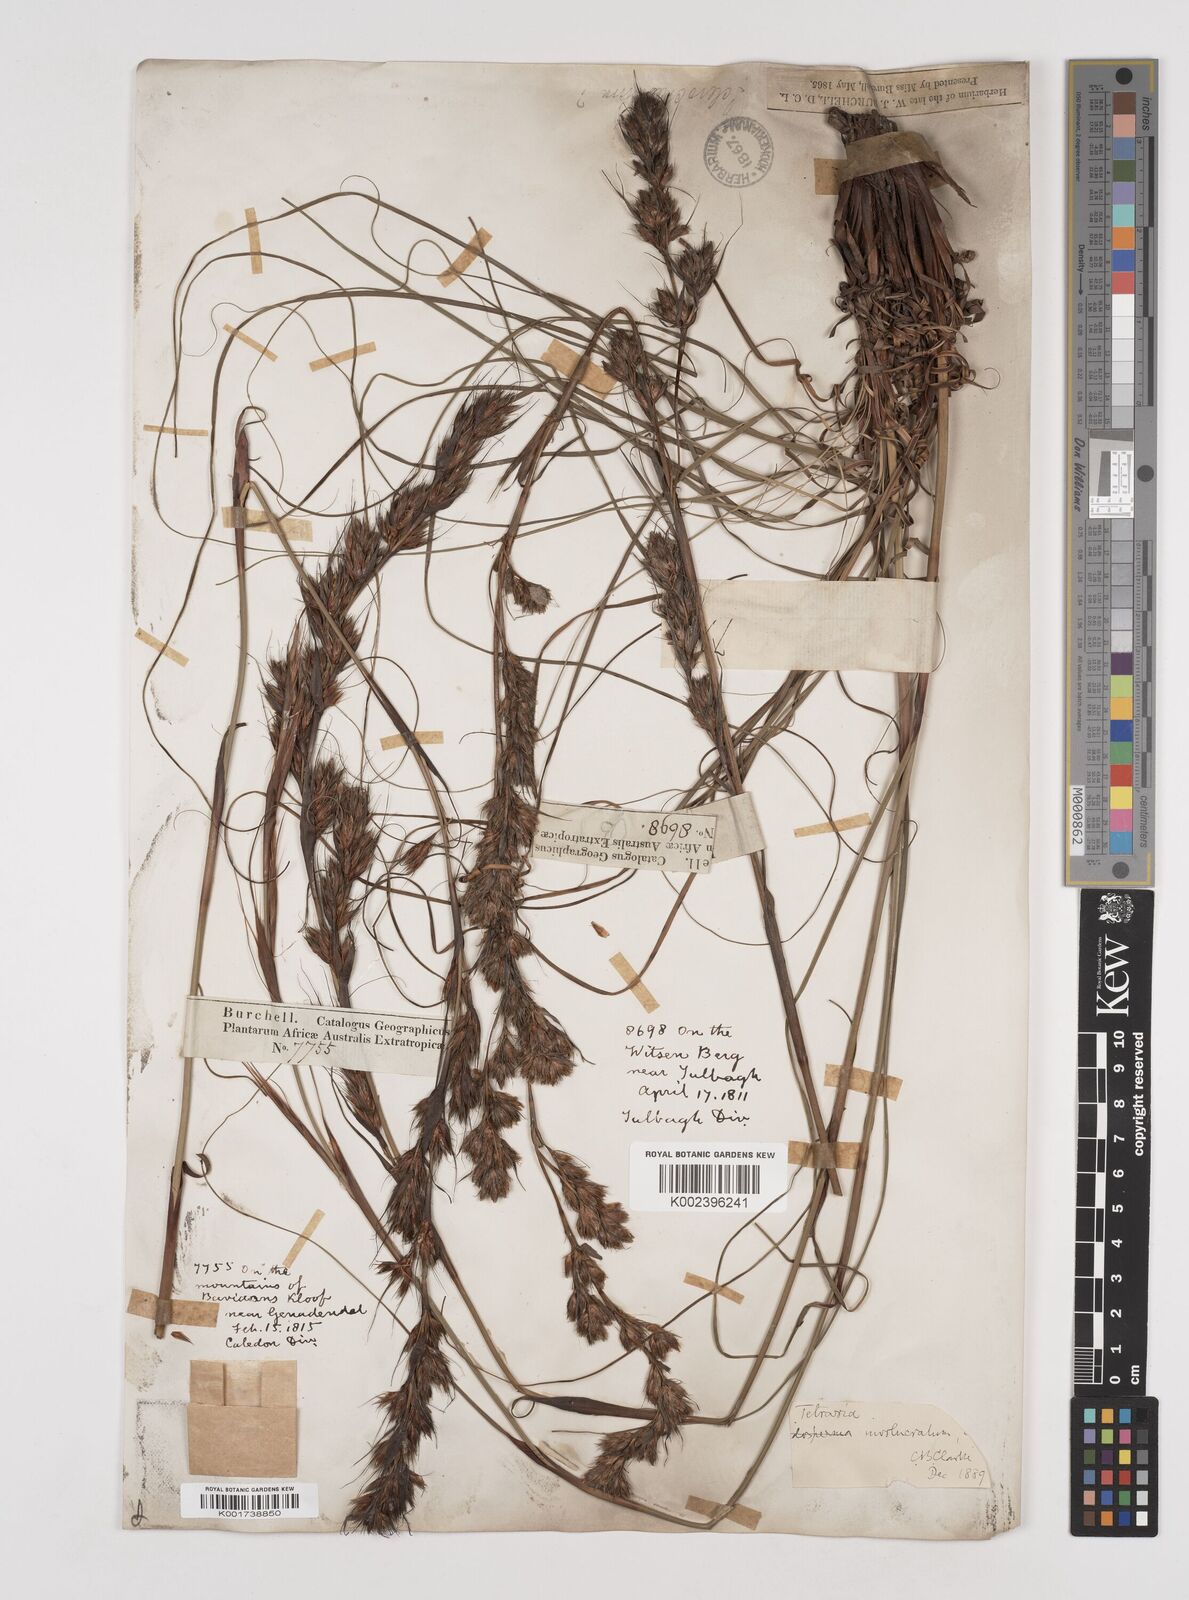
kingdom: Plantae
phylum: Tracheophyta
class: Liliopsida
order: Poales
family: Cyperaceae
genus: Tetraria
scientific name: Tetraria involucrata
